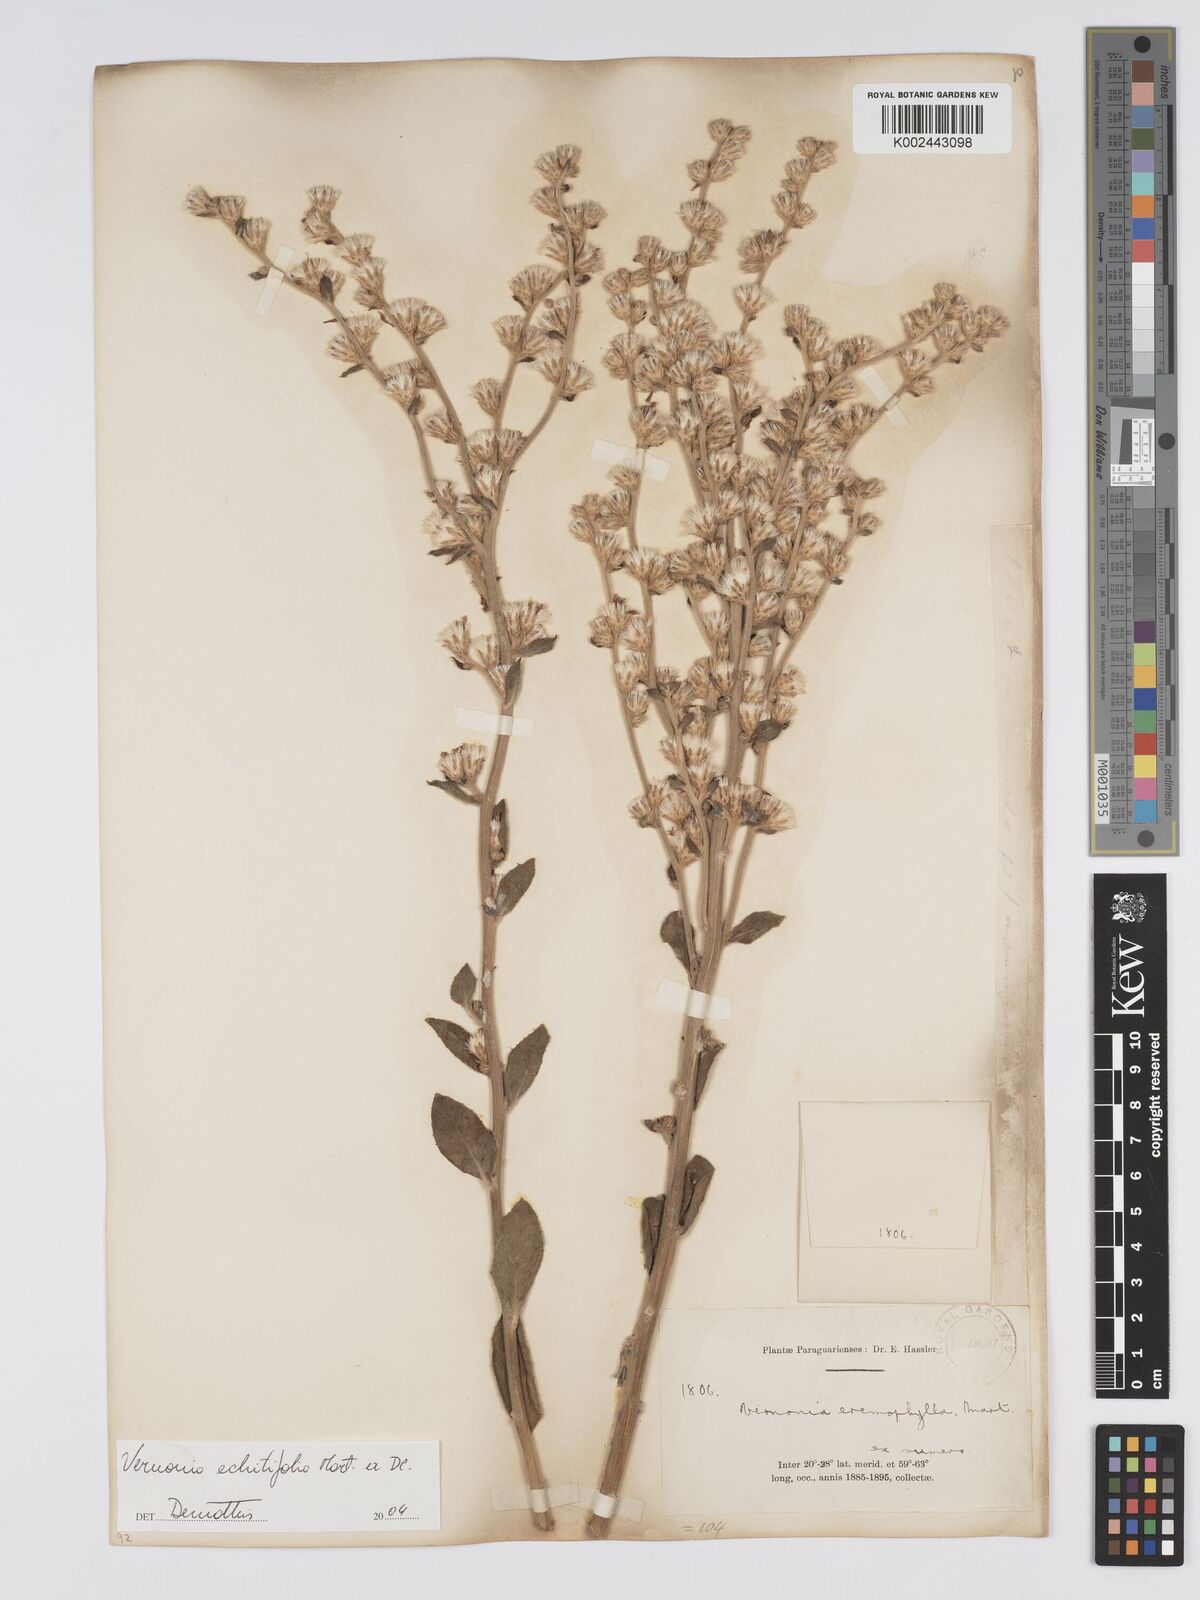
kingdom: Plantae
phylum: Tracheophyta
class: Magnoliopsida
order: Asterales
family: Asteraceae
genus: Acilepidopsis
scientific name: Acilepidopsis echitifolia
